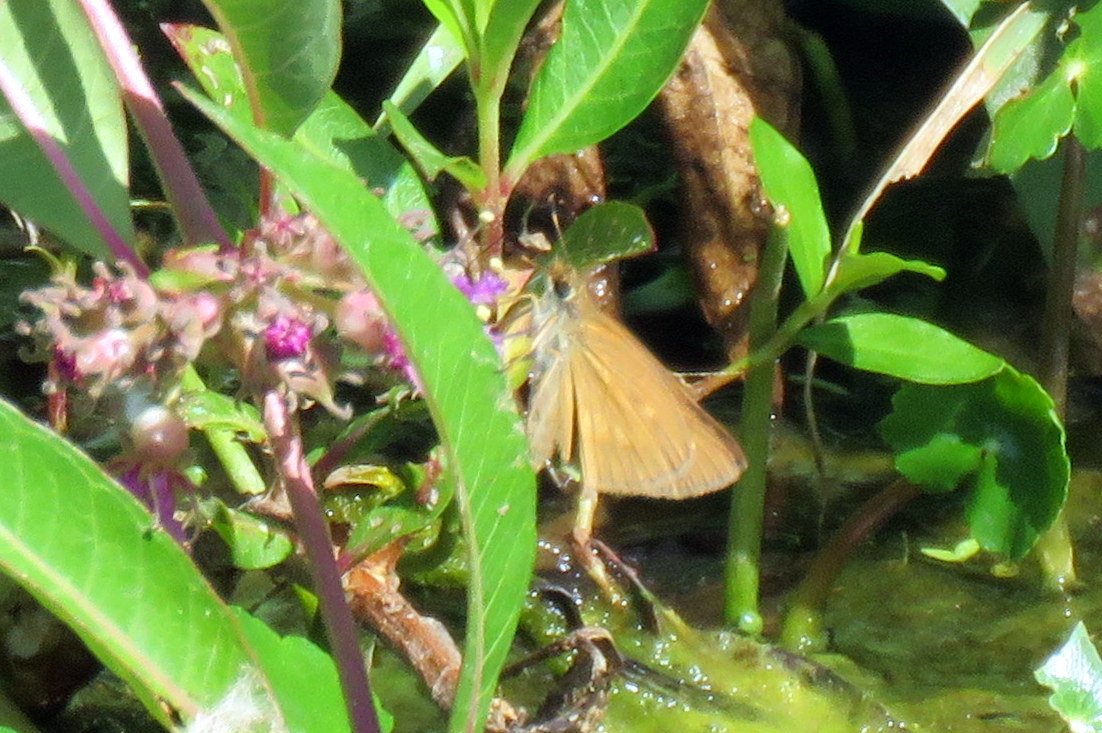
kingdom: Animalia
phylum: Arthropoda
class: Insecta
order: Lepidoptera
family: Hesperiidae
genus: Poanes
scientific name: Poanes viator
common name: Broad-winged Skipper
